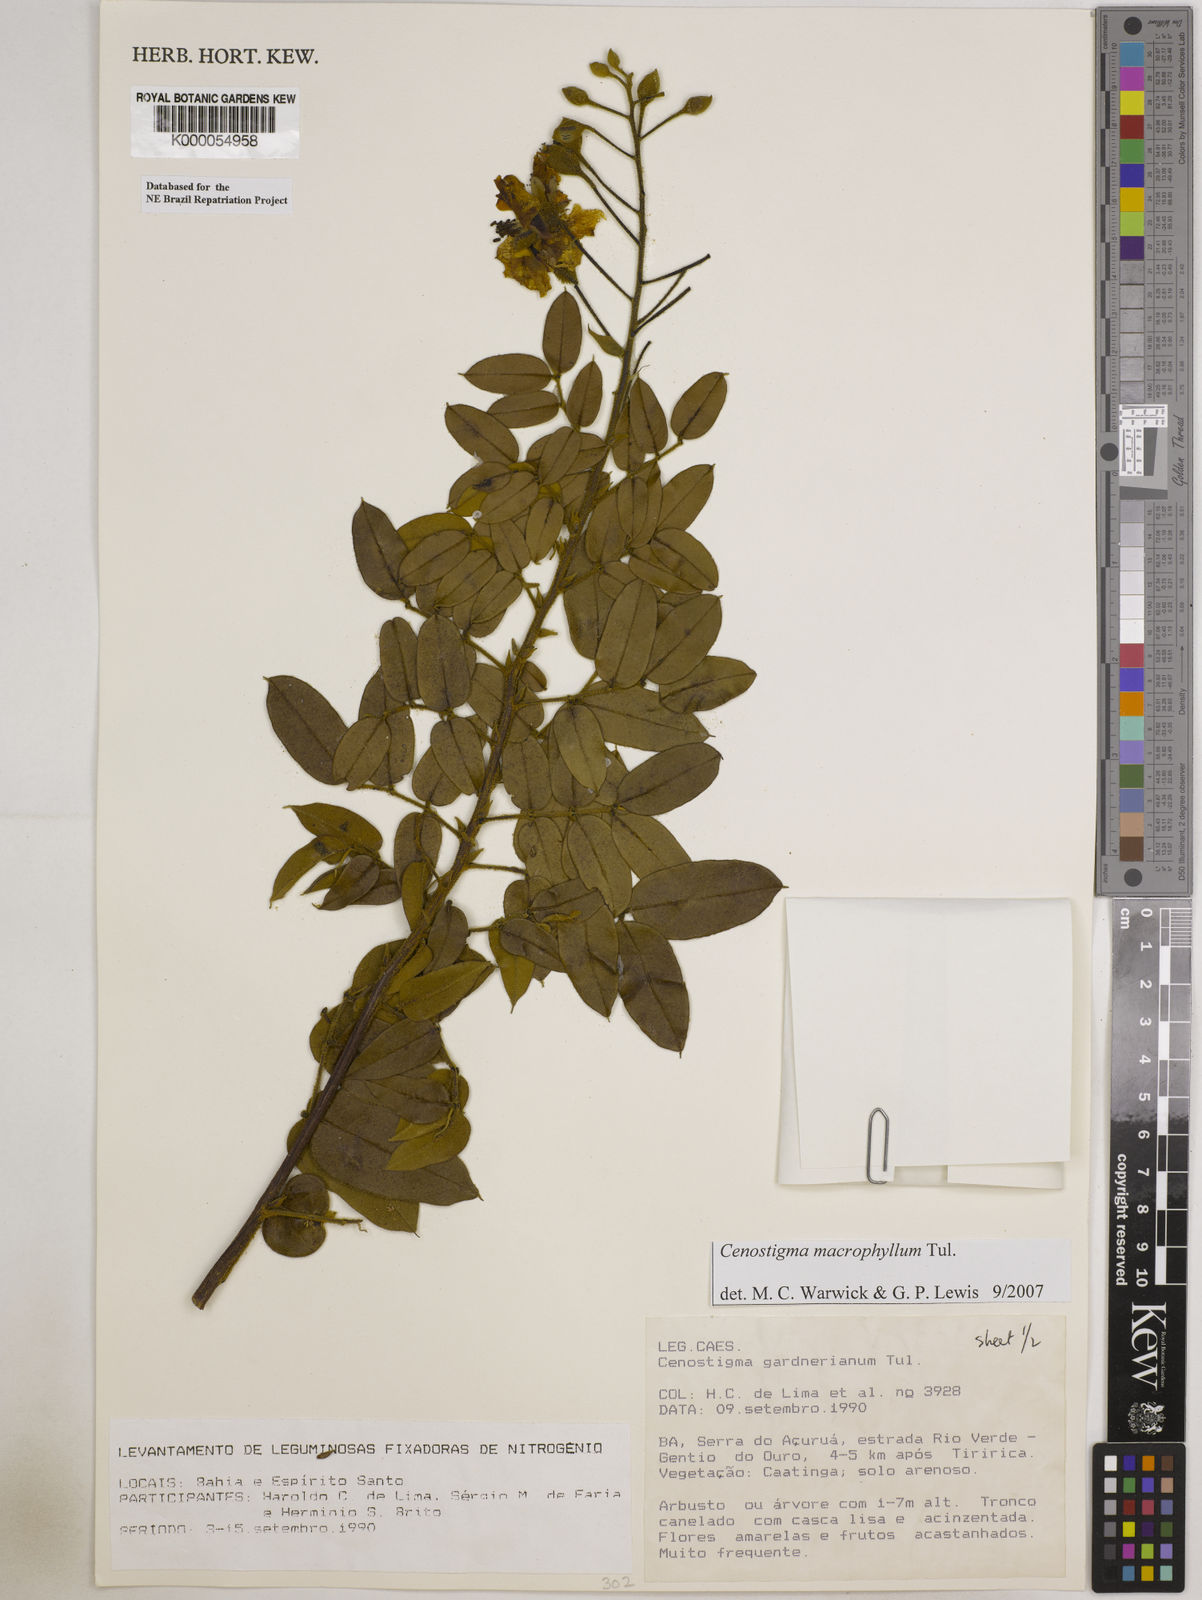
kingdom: Plantae
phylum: Tracheophyta
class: Magnoliopsida
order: Fabales
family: Fabaceae
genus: Cenostigma
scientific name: Cenostigma macrophyllum
